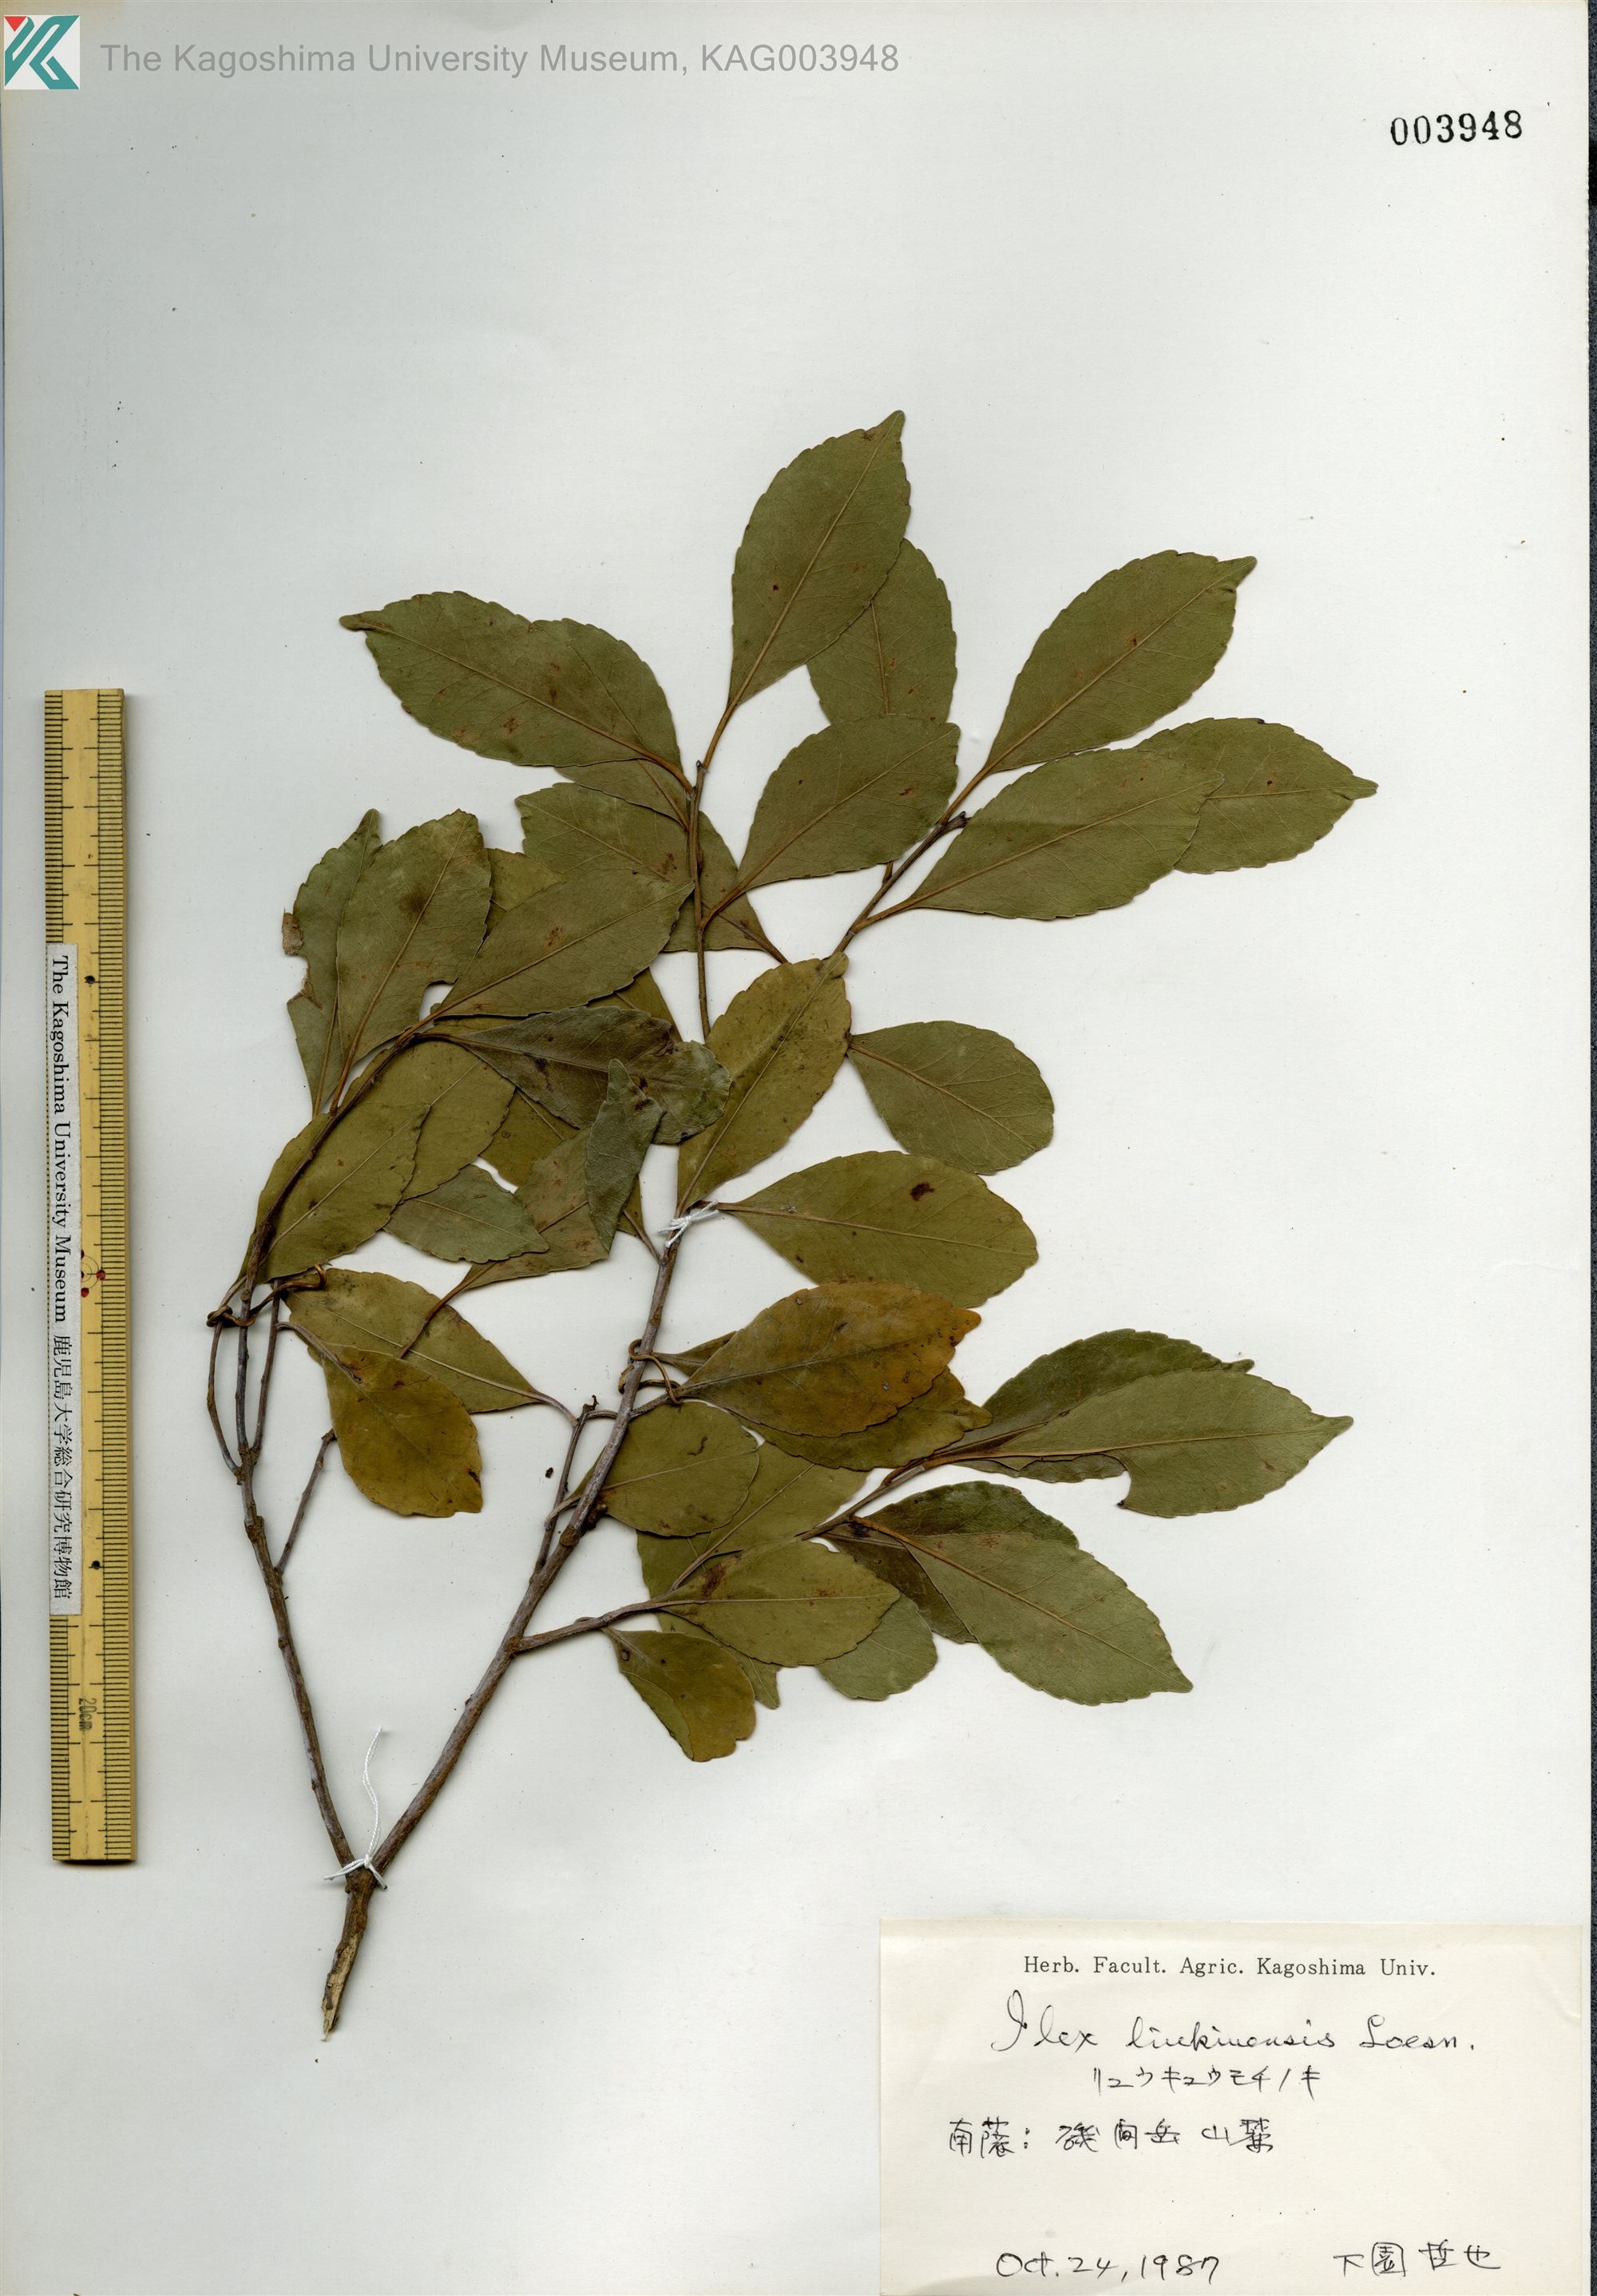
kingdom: Plantae
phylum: Tracheophyta
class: Magnoliopsida
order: Aquifoliales
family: Aquifoliaceae
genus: Ilex
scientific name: Ilex liukiuensis
